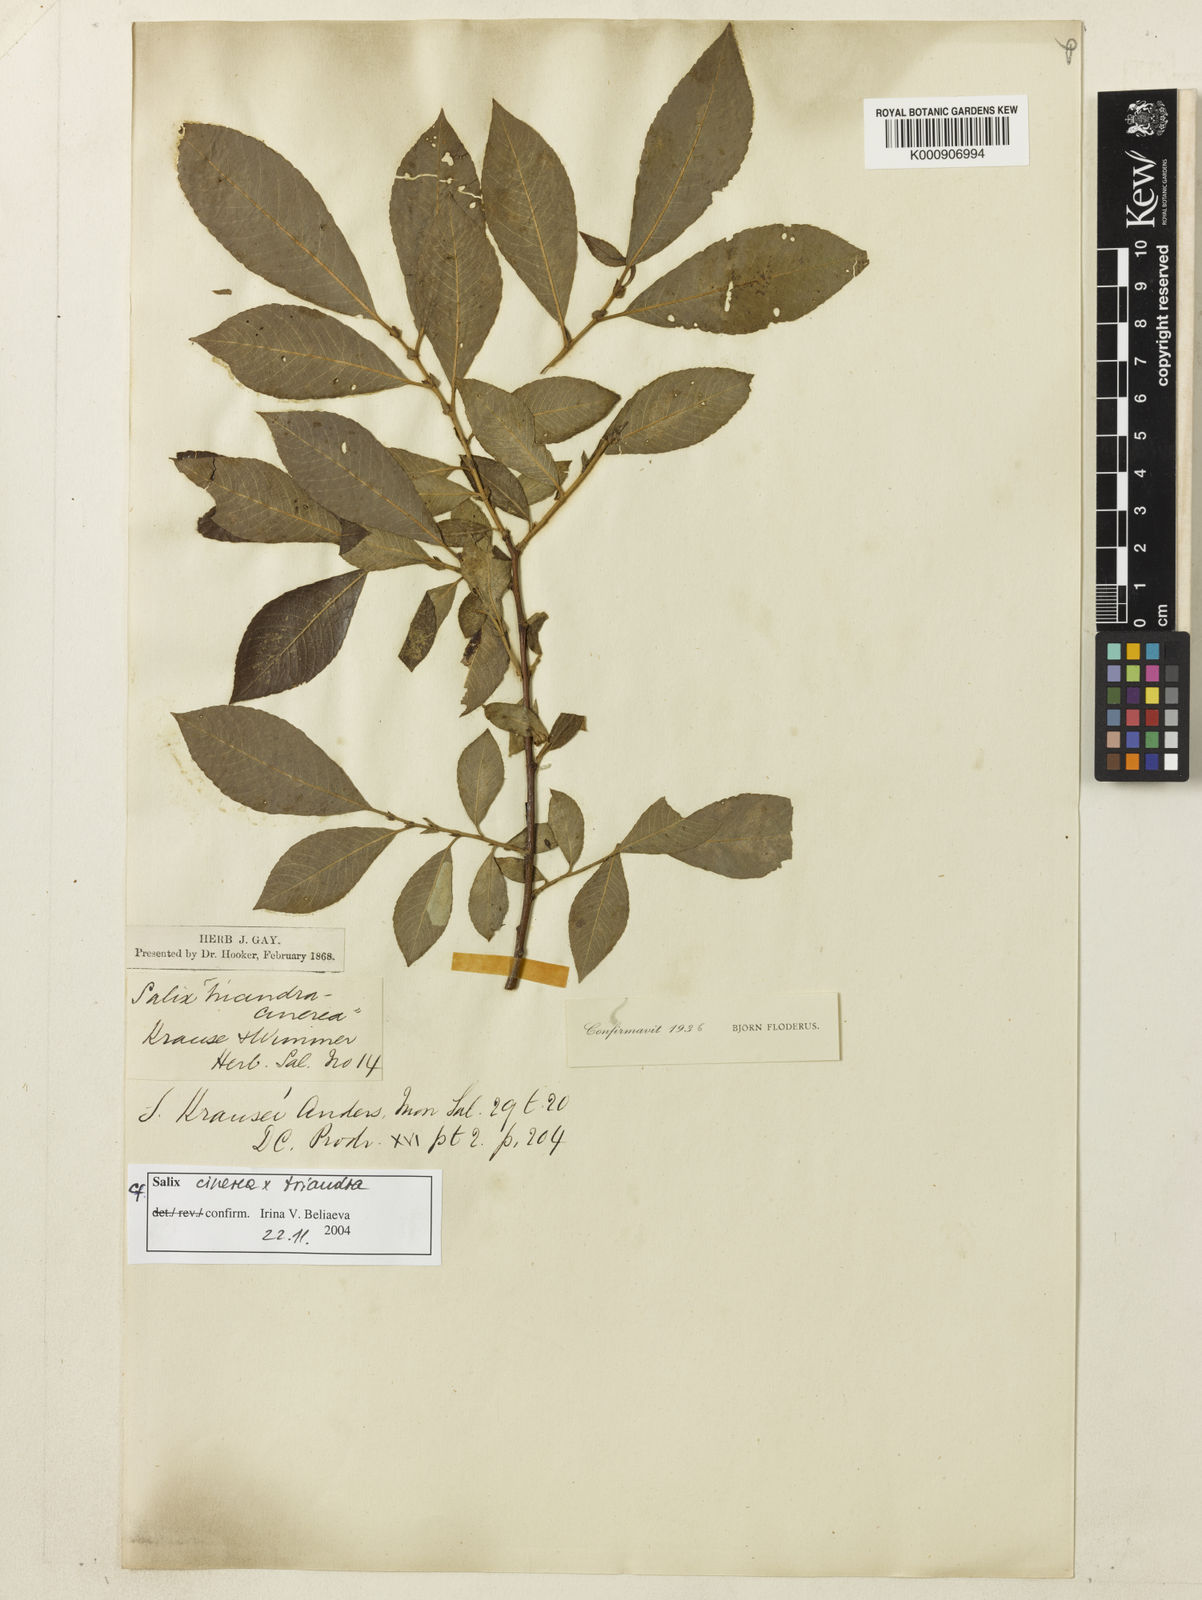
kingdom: Plantae
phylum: Tracheophyta
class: Magnoliopsida
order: Malpighiales
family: Salicaceae
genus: Salix
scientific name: Salix cinerea
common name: Common sallow
